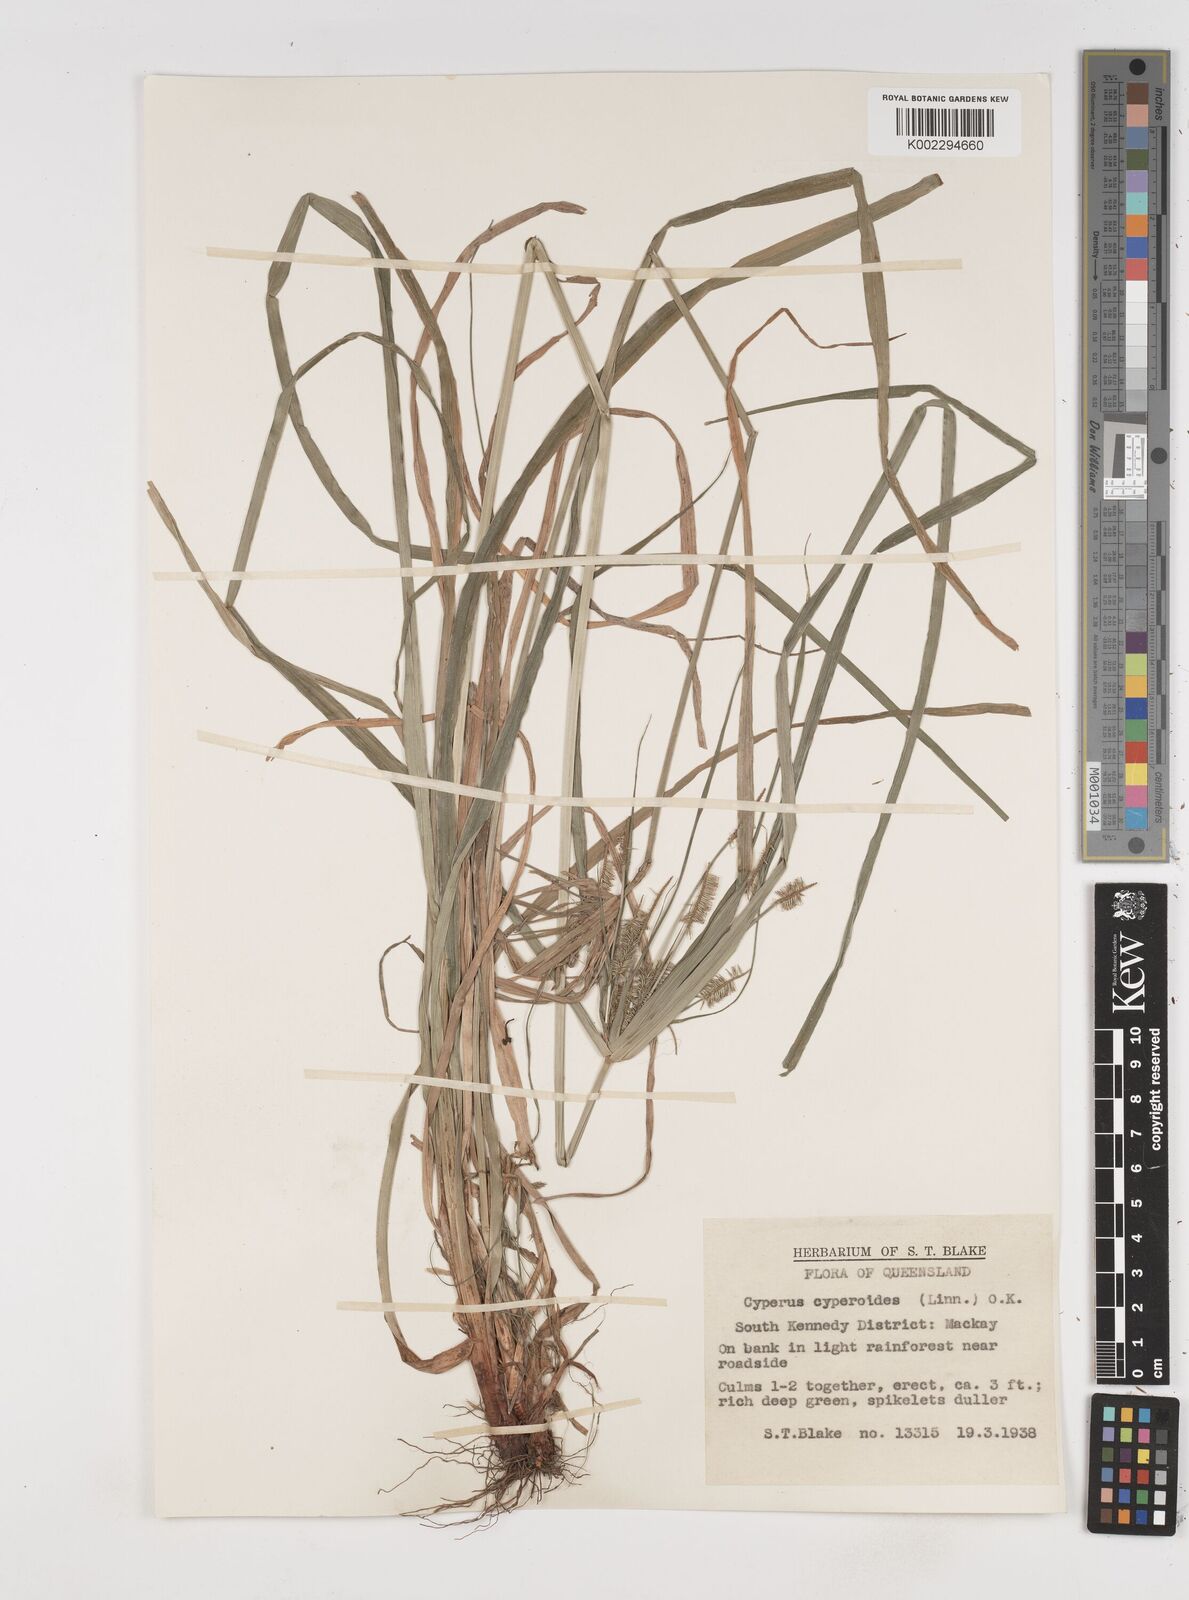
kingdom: Plantae
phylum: Tracheophyta
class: Liliopsida
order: Poales
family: Cyperaceae
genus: Cyperus
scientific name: Cyperus cyperoides
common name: Pacific island flat sedge
